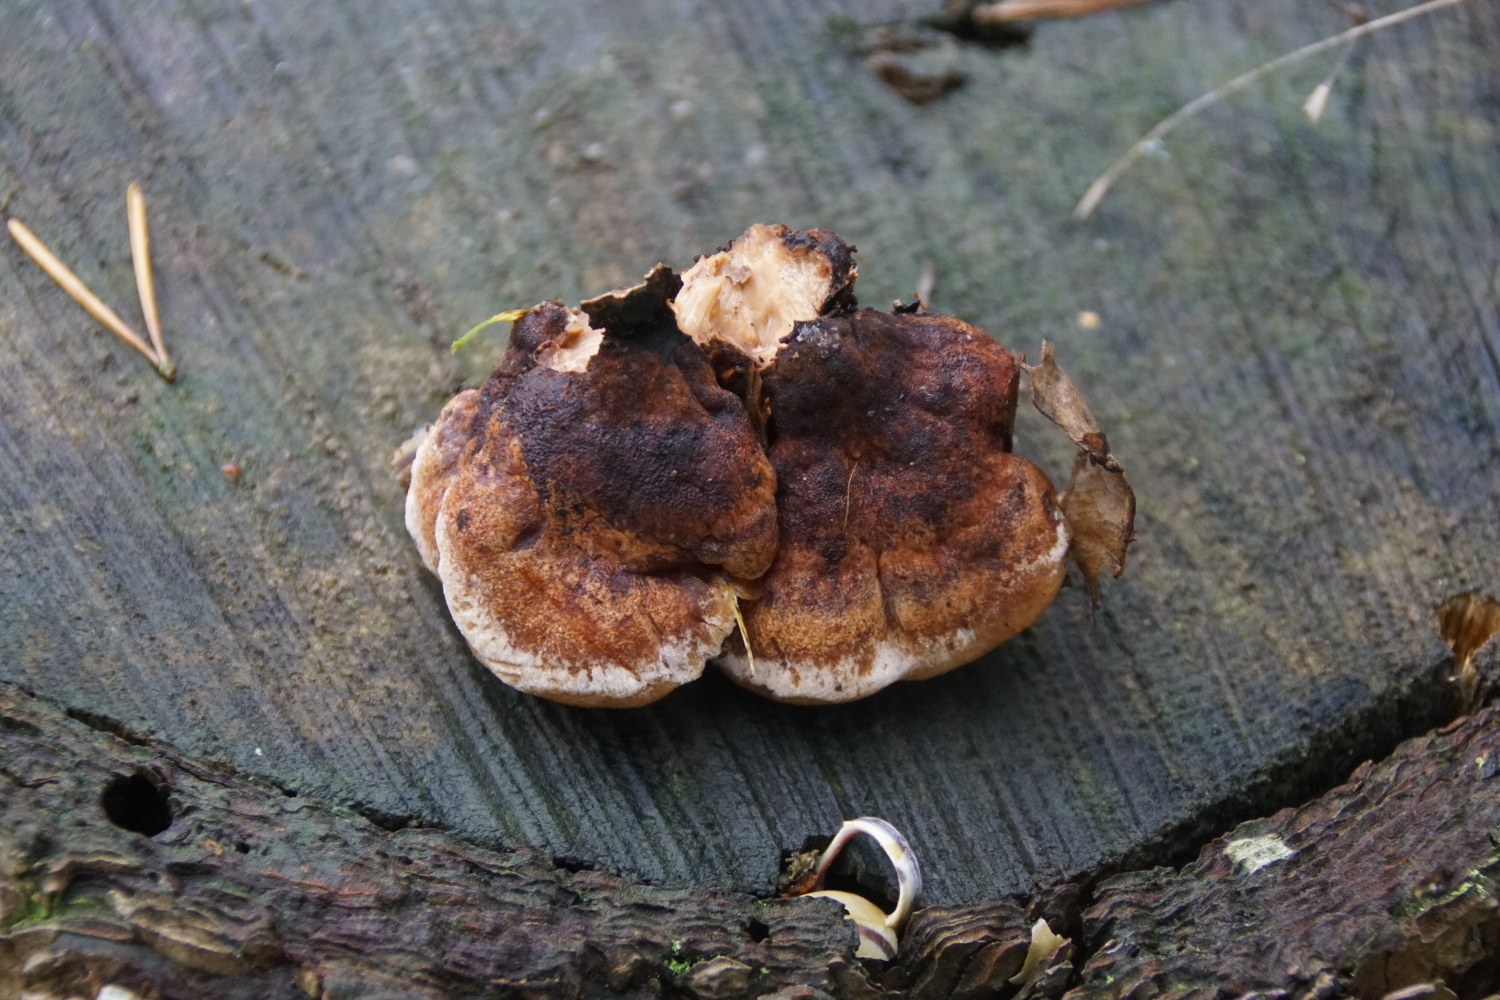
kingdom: Fungi
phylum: Basidiomycota
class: Agaricomycetes
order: Polyporales
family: Ischnodermataceae
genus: Ischnoderma
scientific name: Ischnoderma benzoinum
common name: gran-tjæreporesvamp
